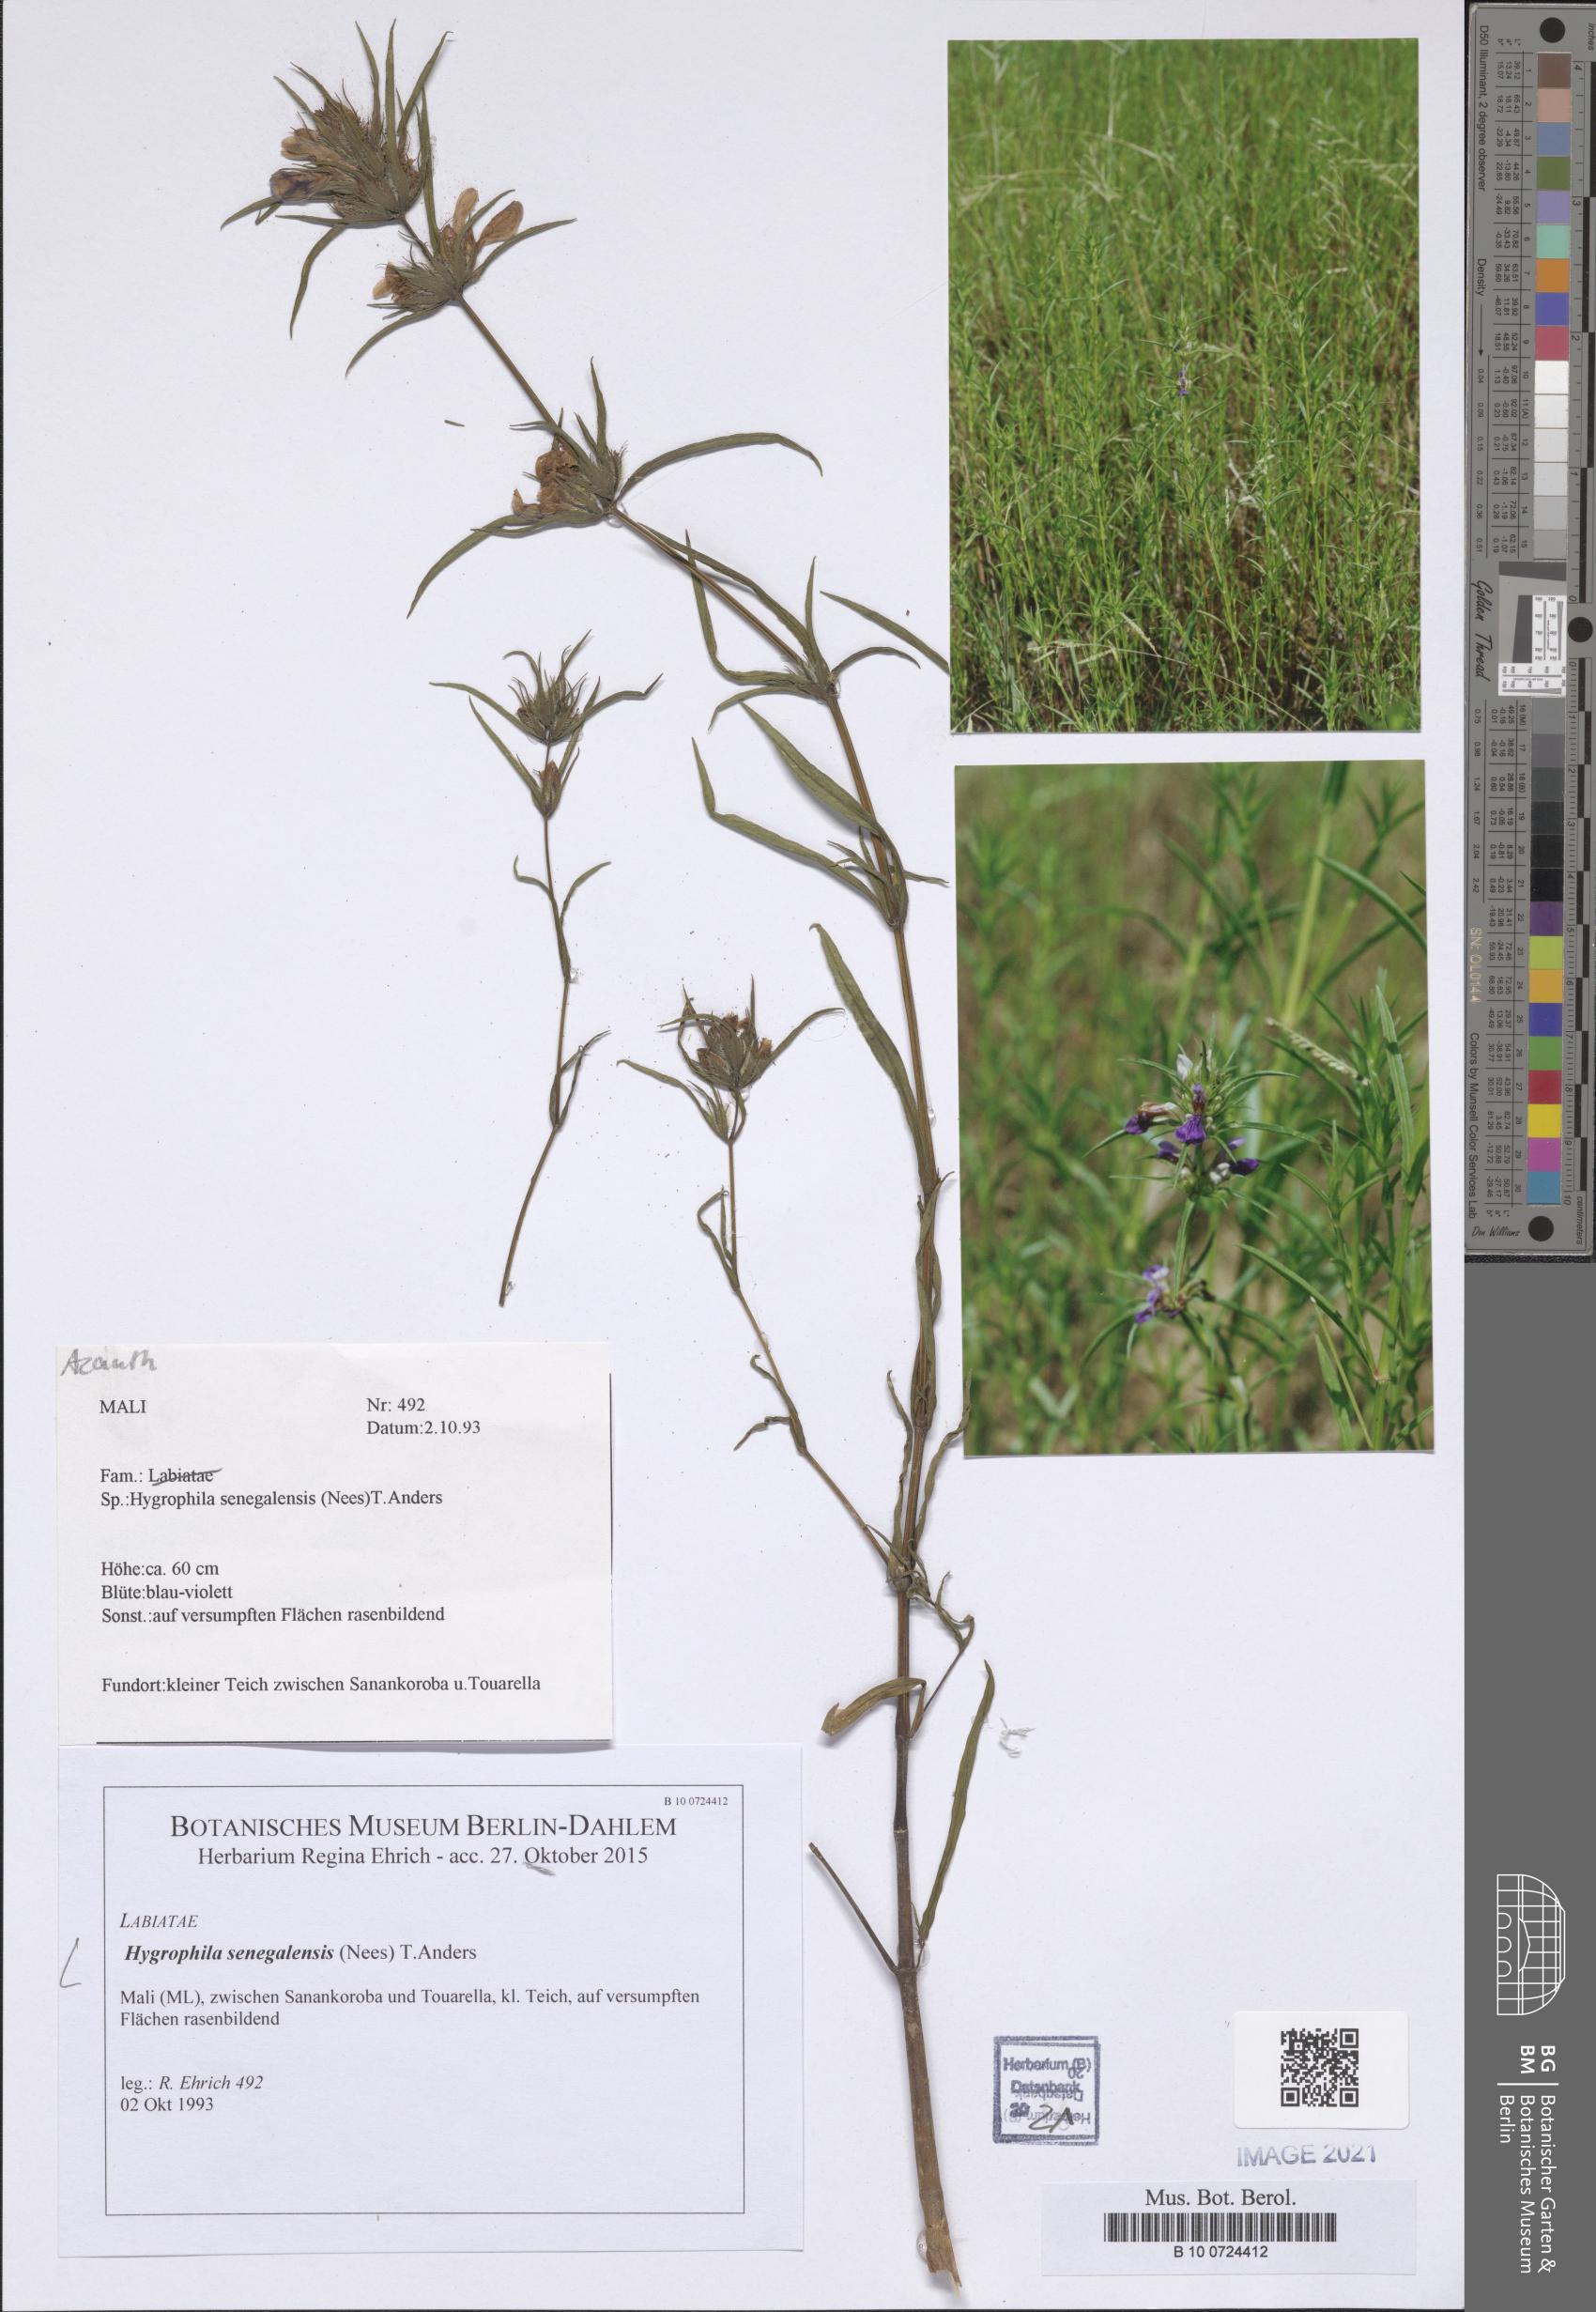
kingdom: Plantae
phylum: Tracheophyta
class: Magnoliopsida
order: Lamiales
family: Acanthaceae
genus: Hygrophila
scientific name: Hygrophila micrantha
